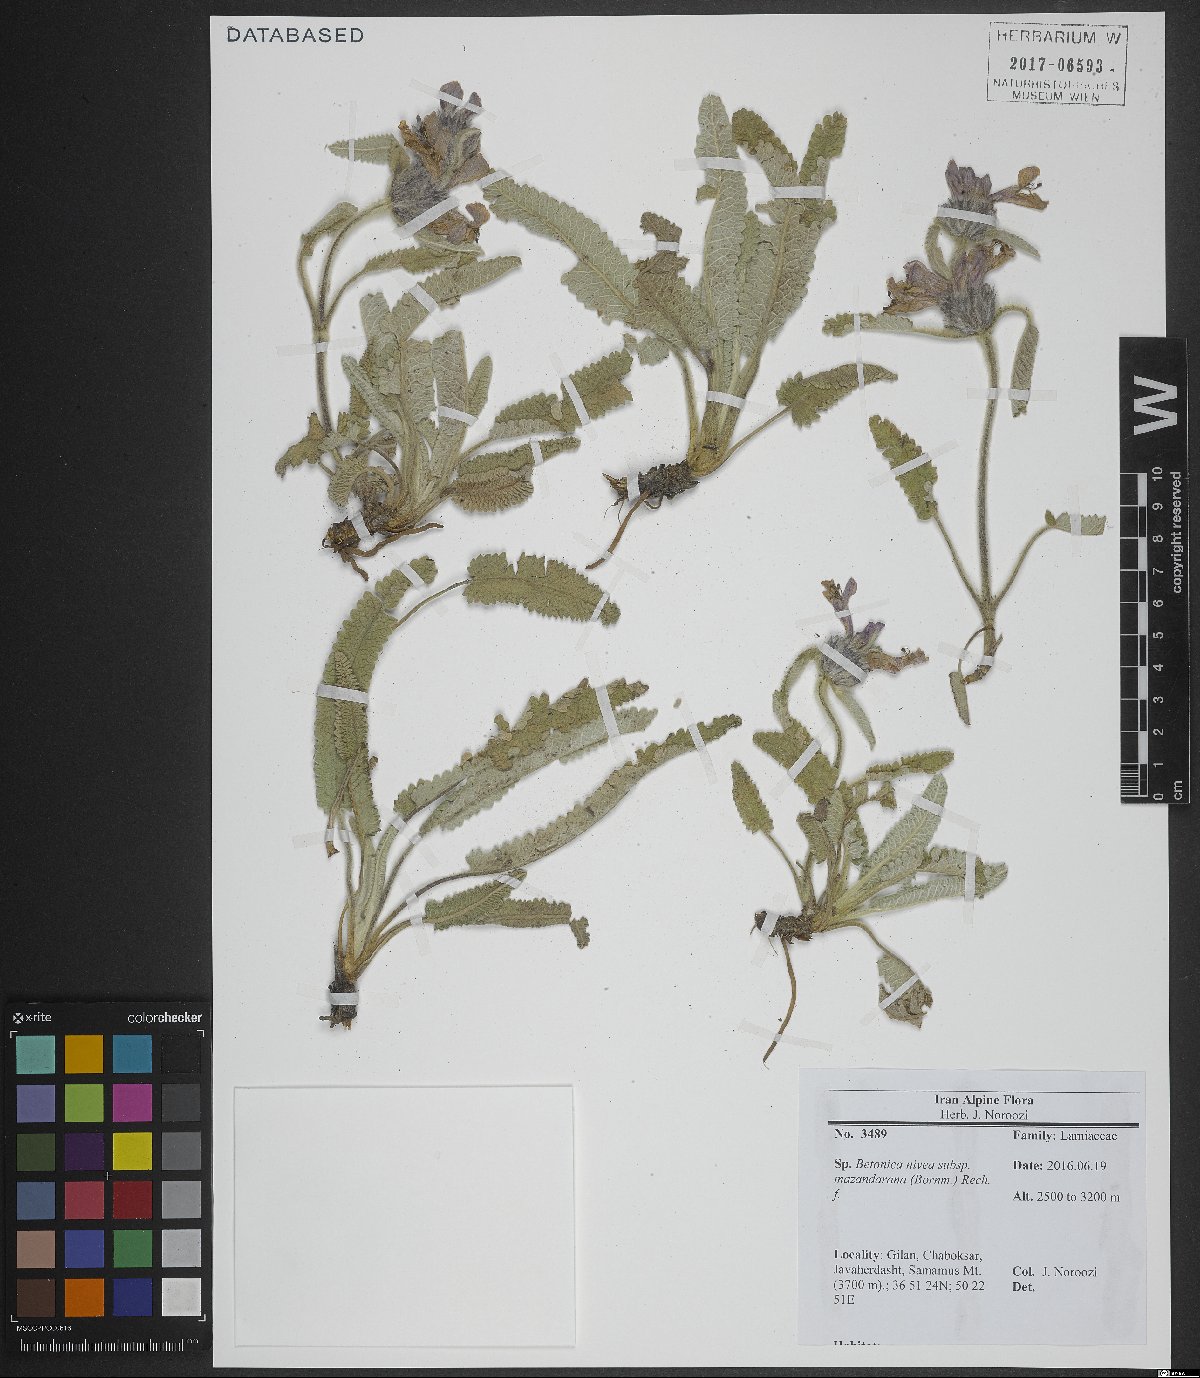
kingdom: Plantae
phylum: Tracheophyta
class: Magnoliopsida
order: Lamiales
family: Lamiaceae
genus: Stachys
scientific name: Stachys alpina
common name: Limestone woundwort
